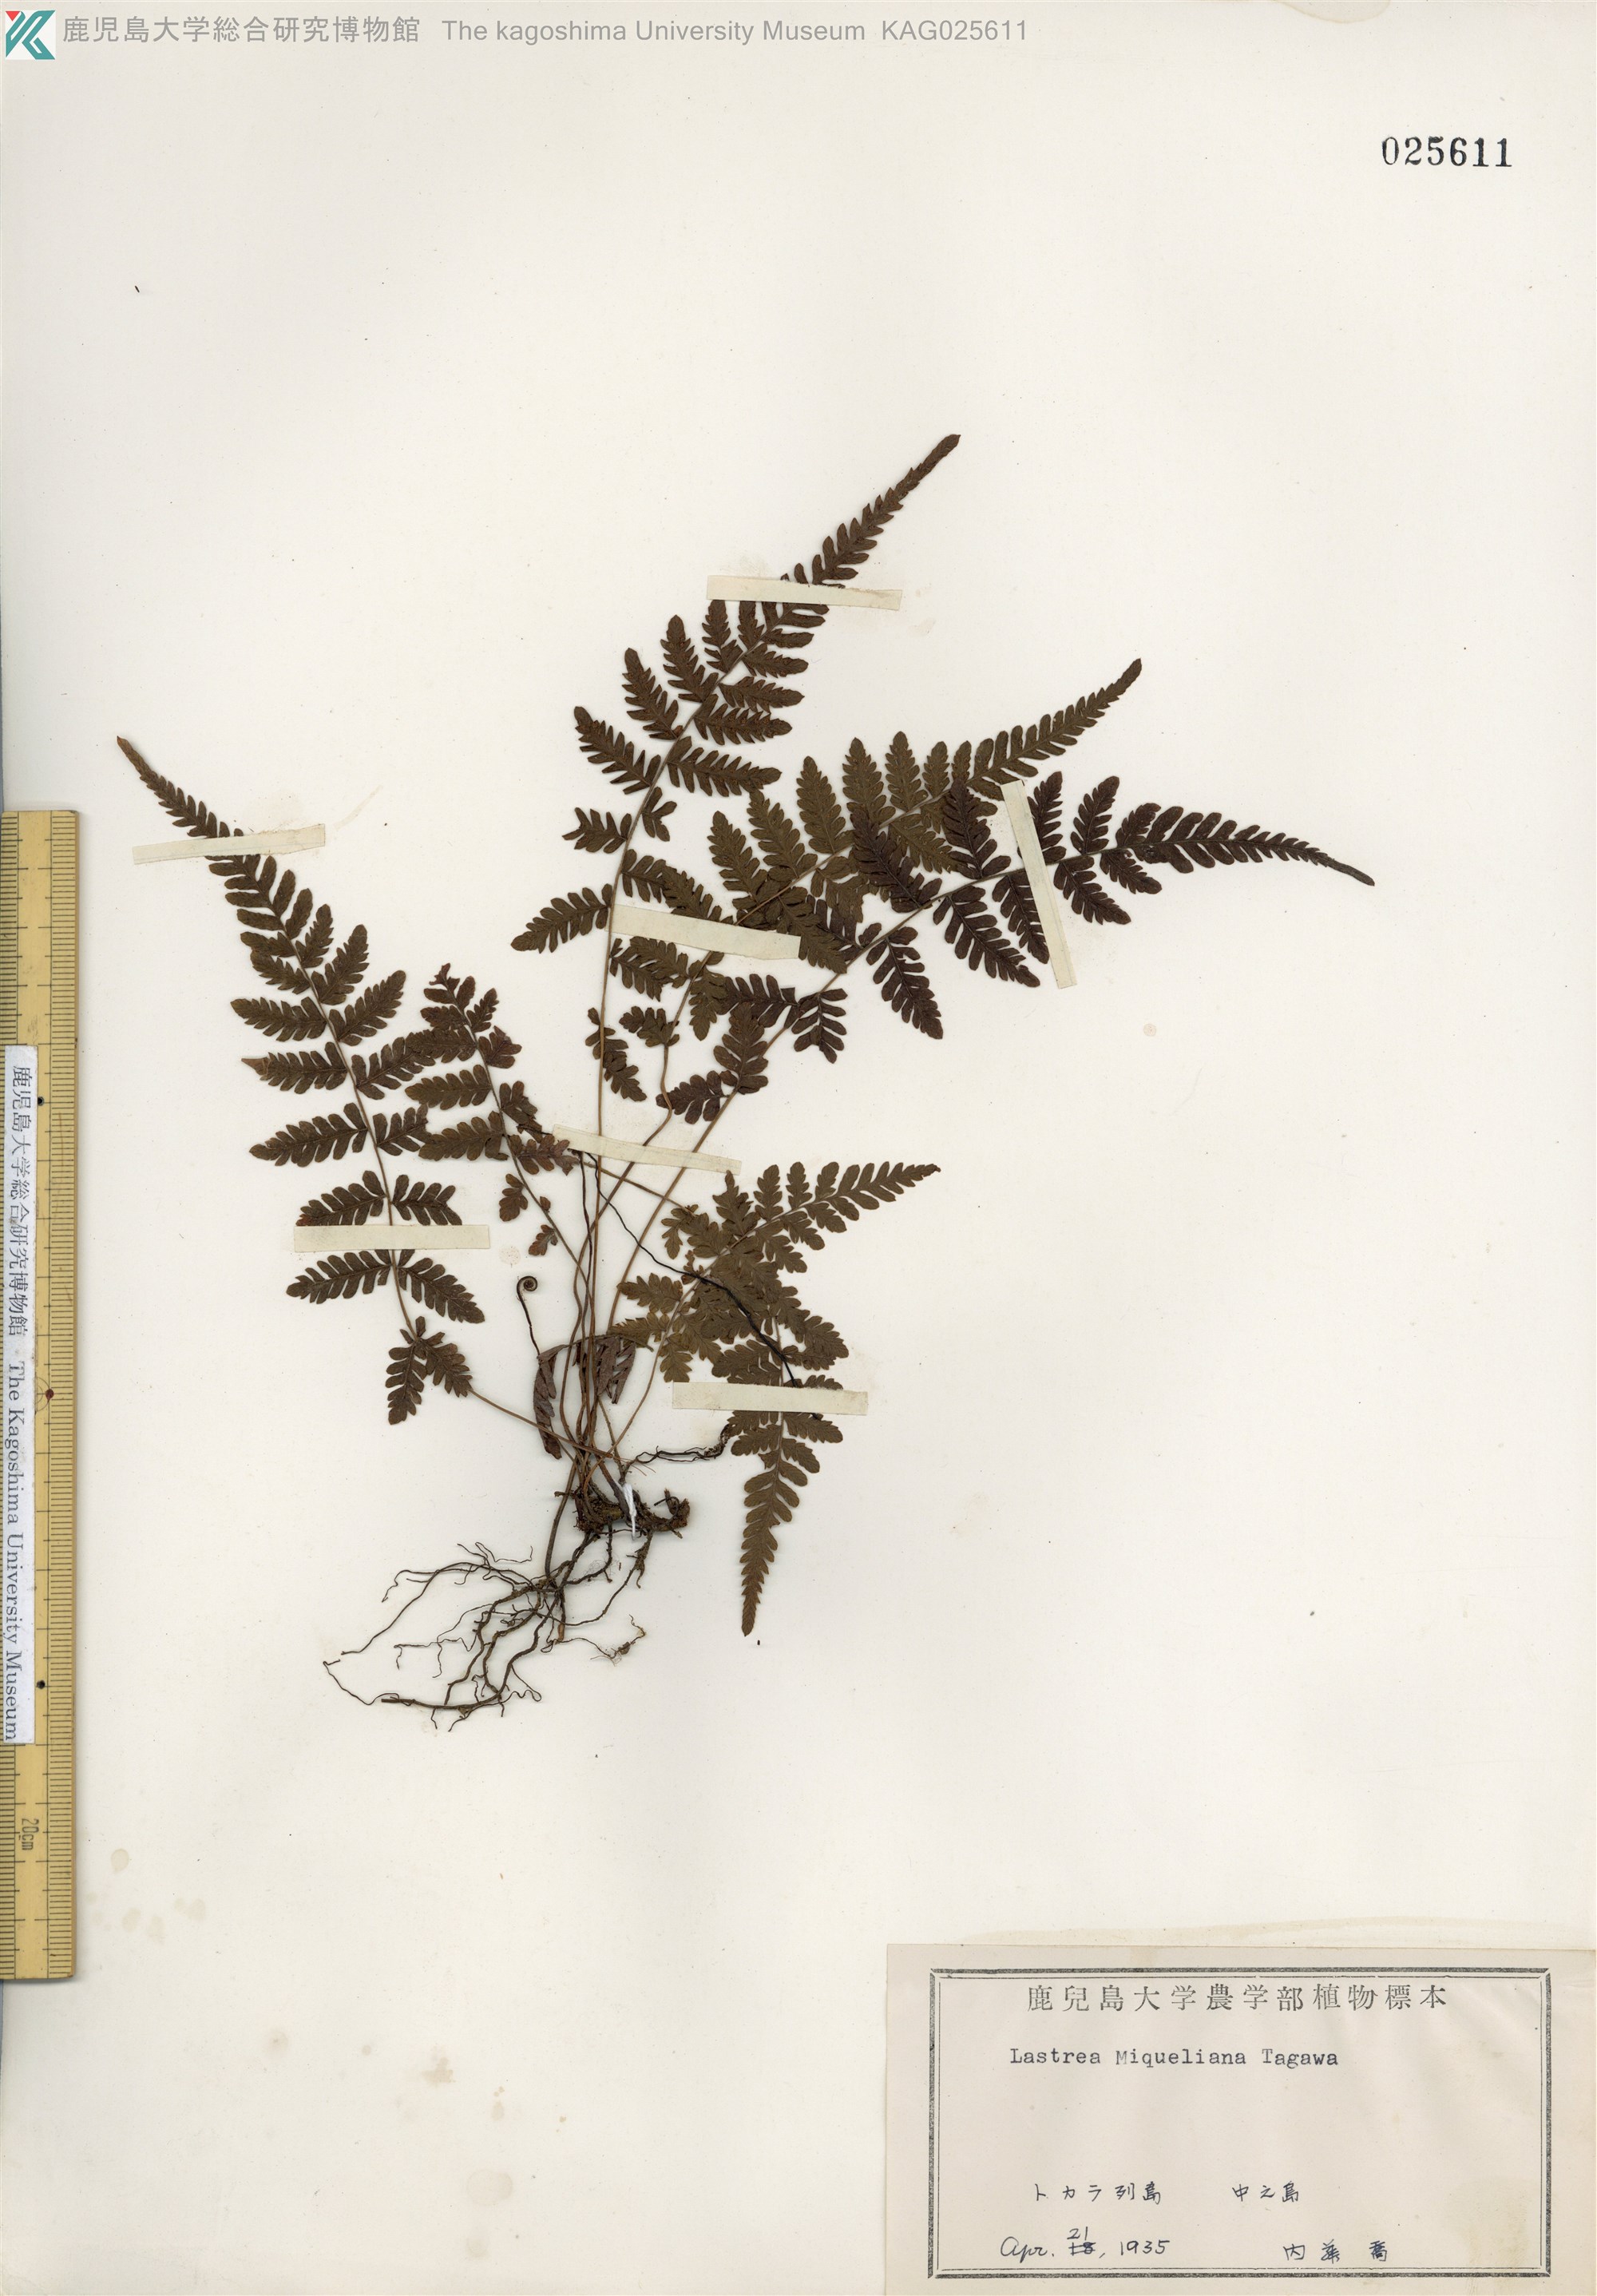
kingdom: Plantae
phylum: Tracheophyta
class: Polypodiopsida
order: Polypodiales
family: Thelypteridaceae
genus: Amauropelta
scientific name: Amauropelta angustifrons
